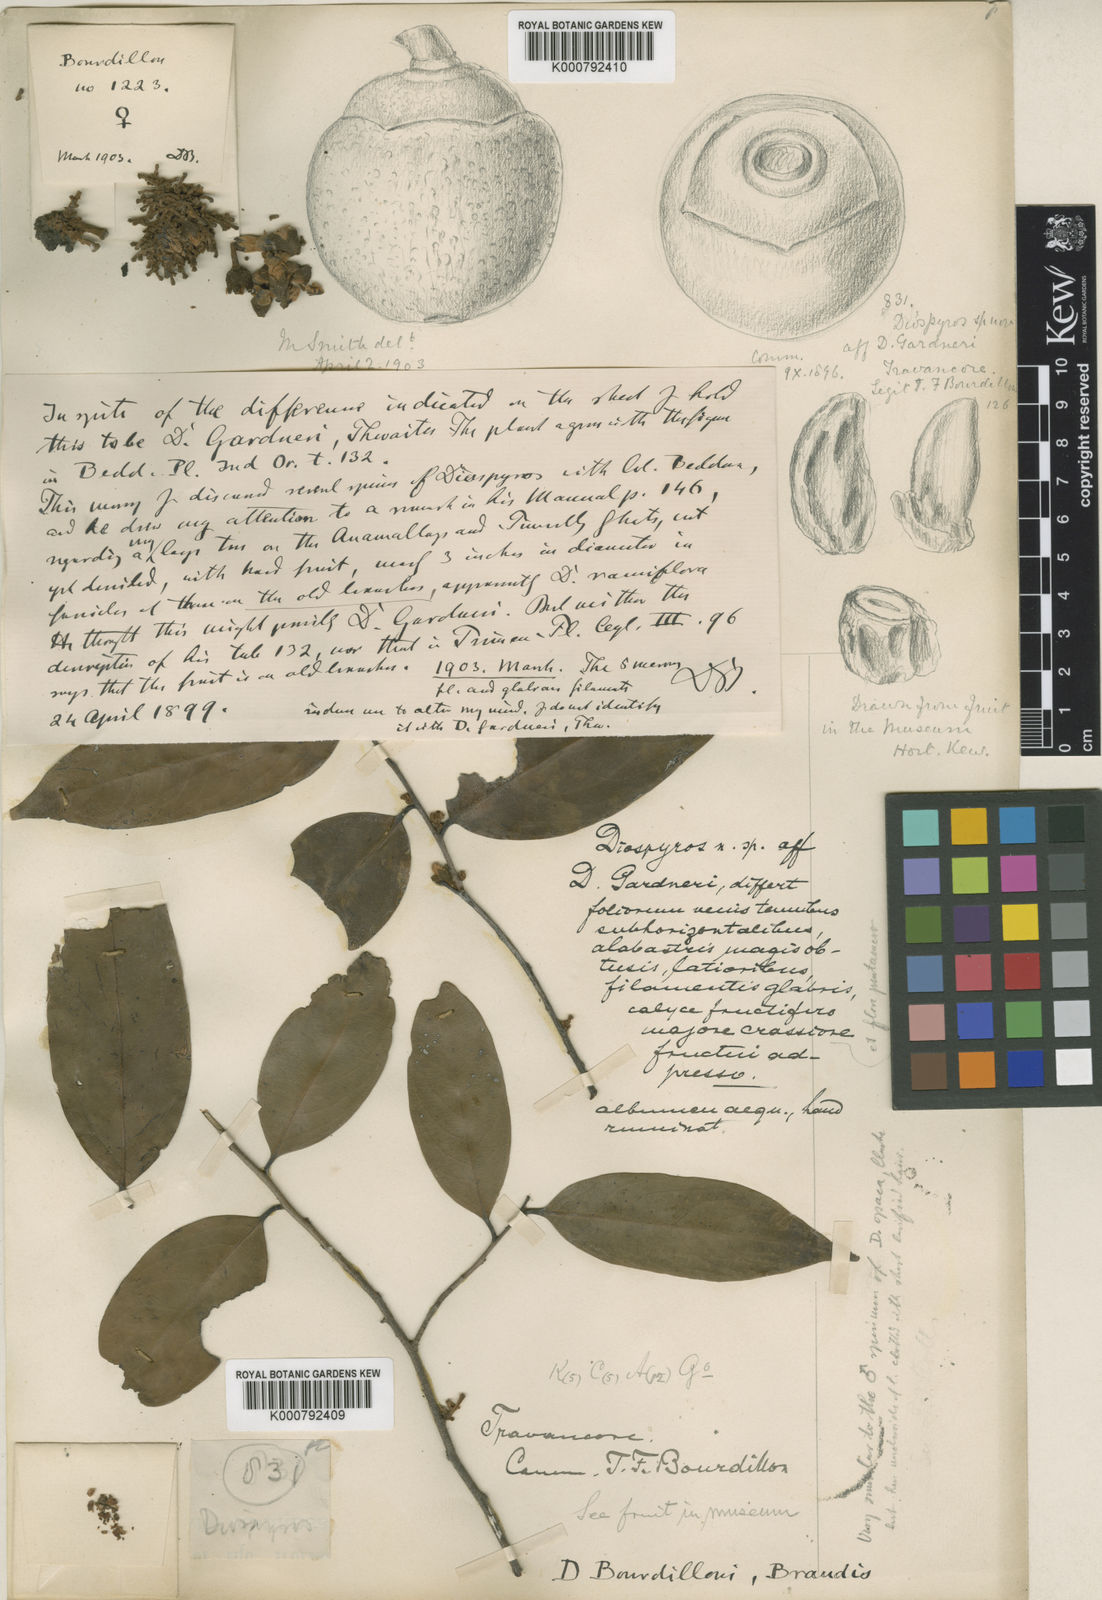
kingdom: Plantae
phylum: Tracheophyta
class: Magnoliopsida
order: Ericales
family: Ebenaceae
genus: Diospyros
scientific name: Diospyros bourdillonii
